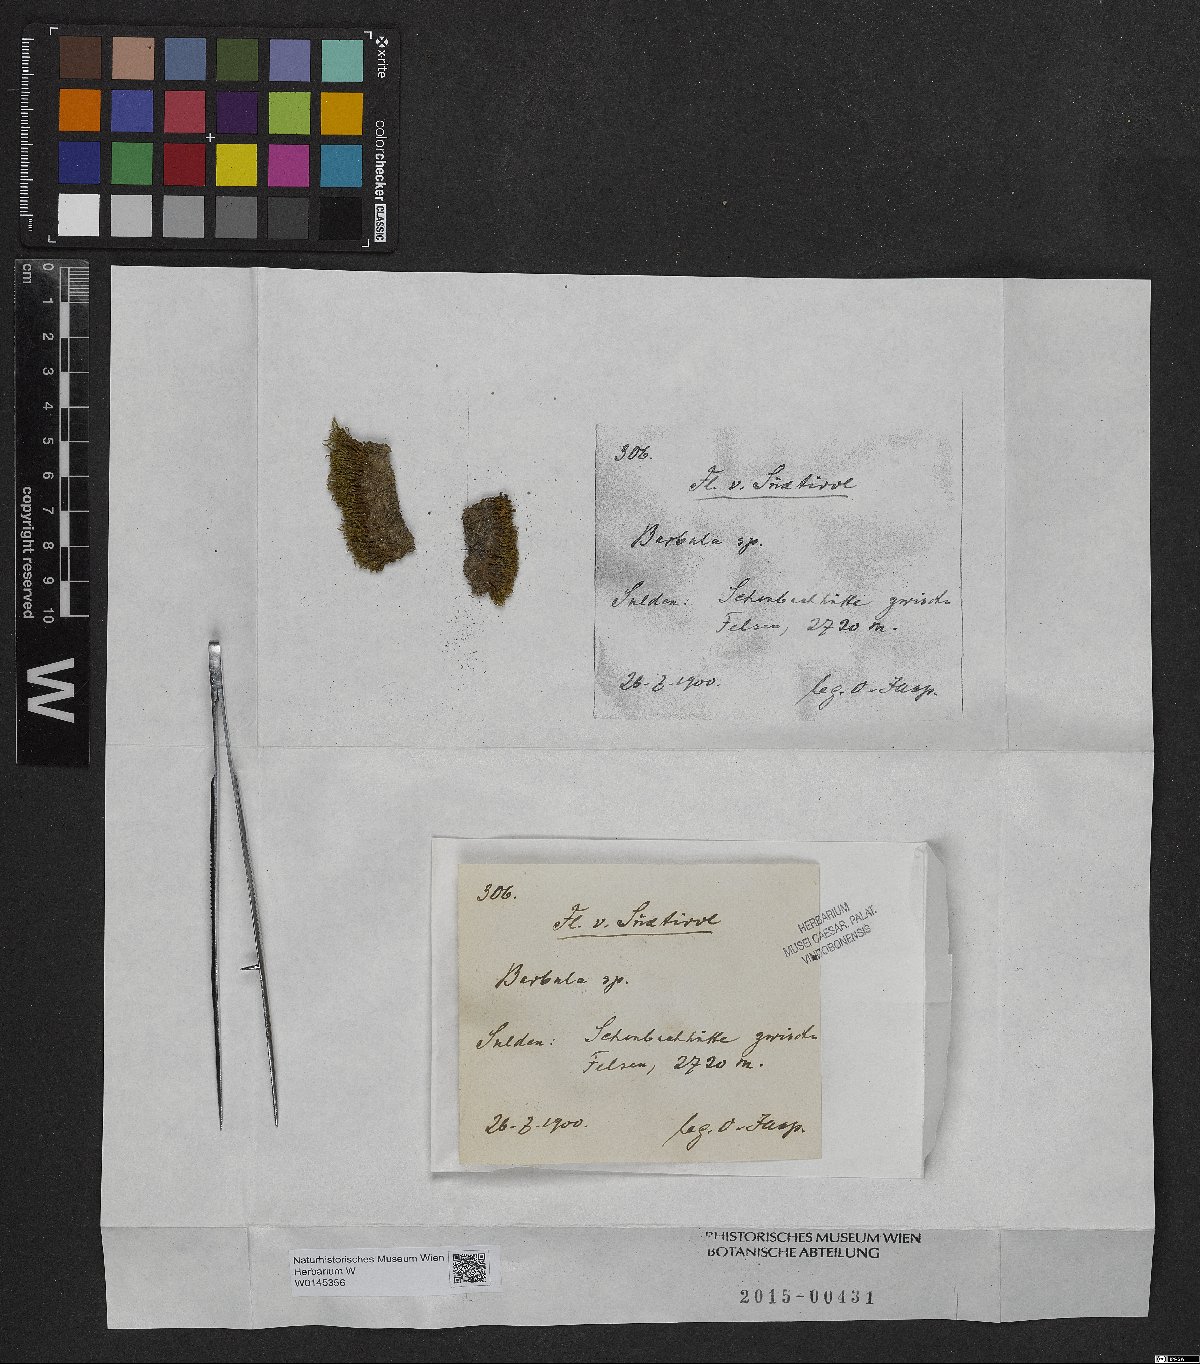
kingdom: Plantae
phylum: Bryophyta
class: Bryopsida
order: Pottiales
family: Pottiaceae
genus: Barbula
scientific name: Barbula
